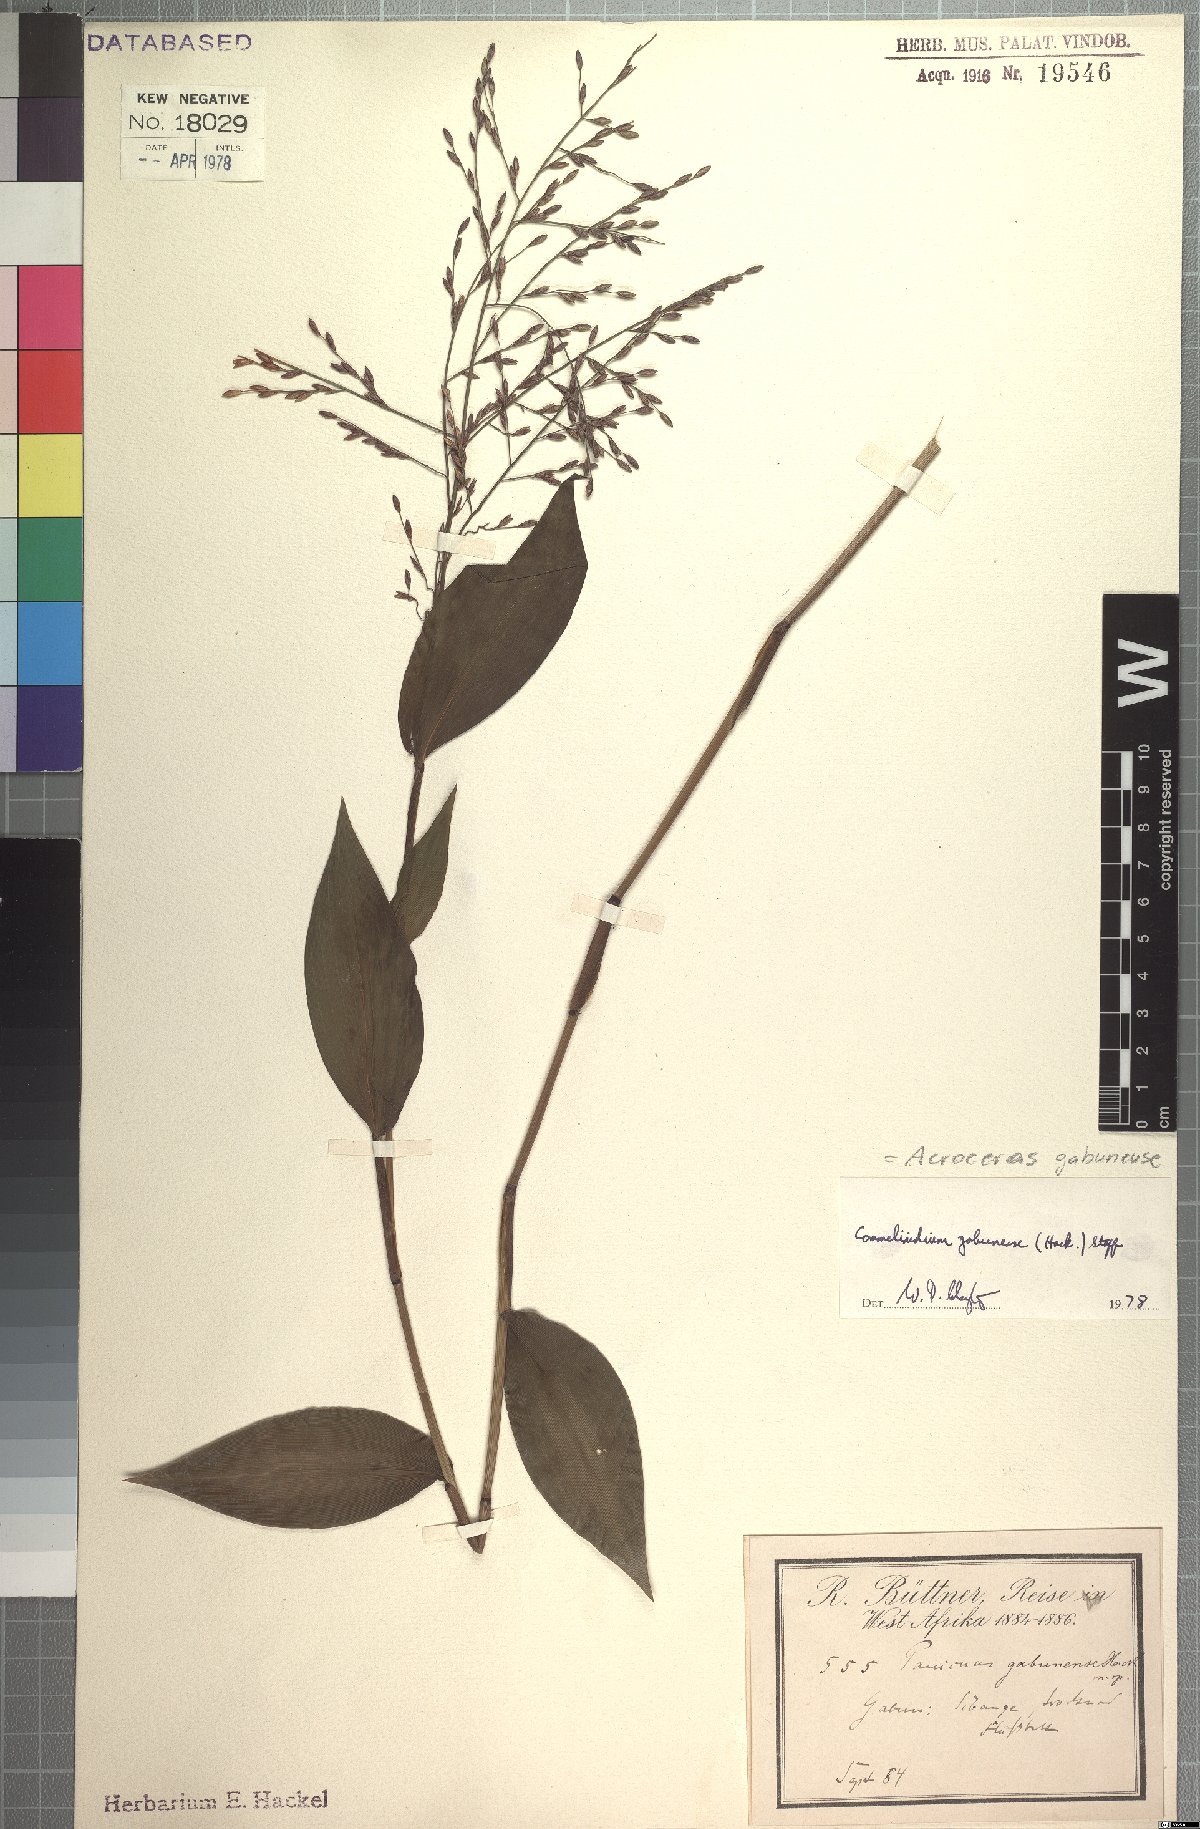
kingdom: Plantae
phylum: Tracheophyta
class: Liliopsida
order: Poales
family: Poaceae
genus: Acroceras
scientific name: Acroceras gabunense
